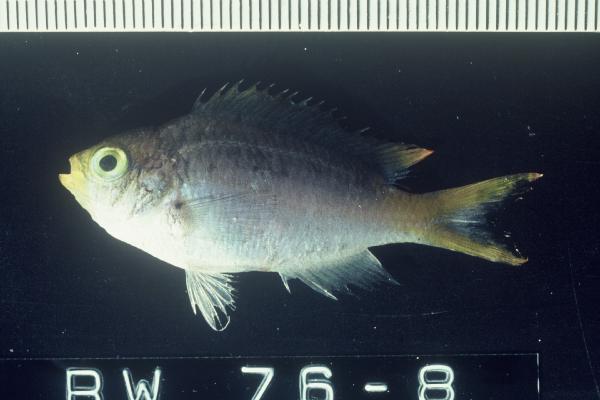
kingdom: Animalia
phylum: Chordata
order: Perciformes
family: Pomacentridae
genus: Chromis
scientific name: Chromis dasygenys
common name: Blue-spotted chromis
